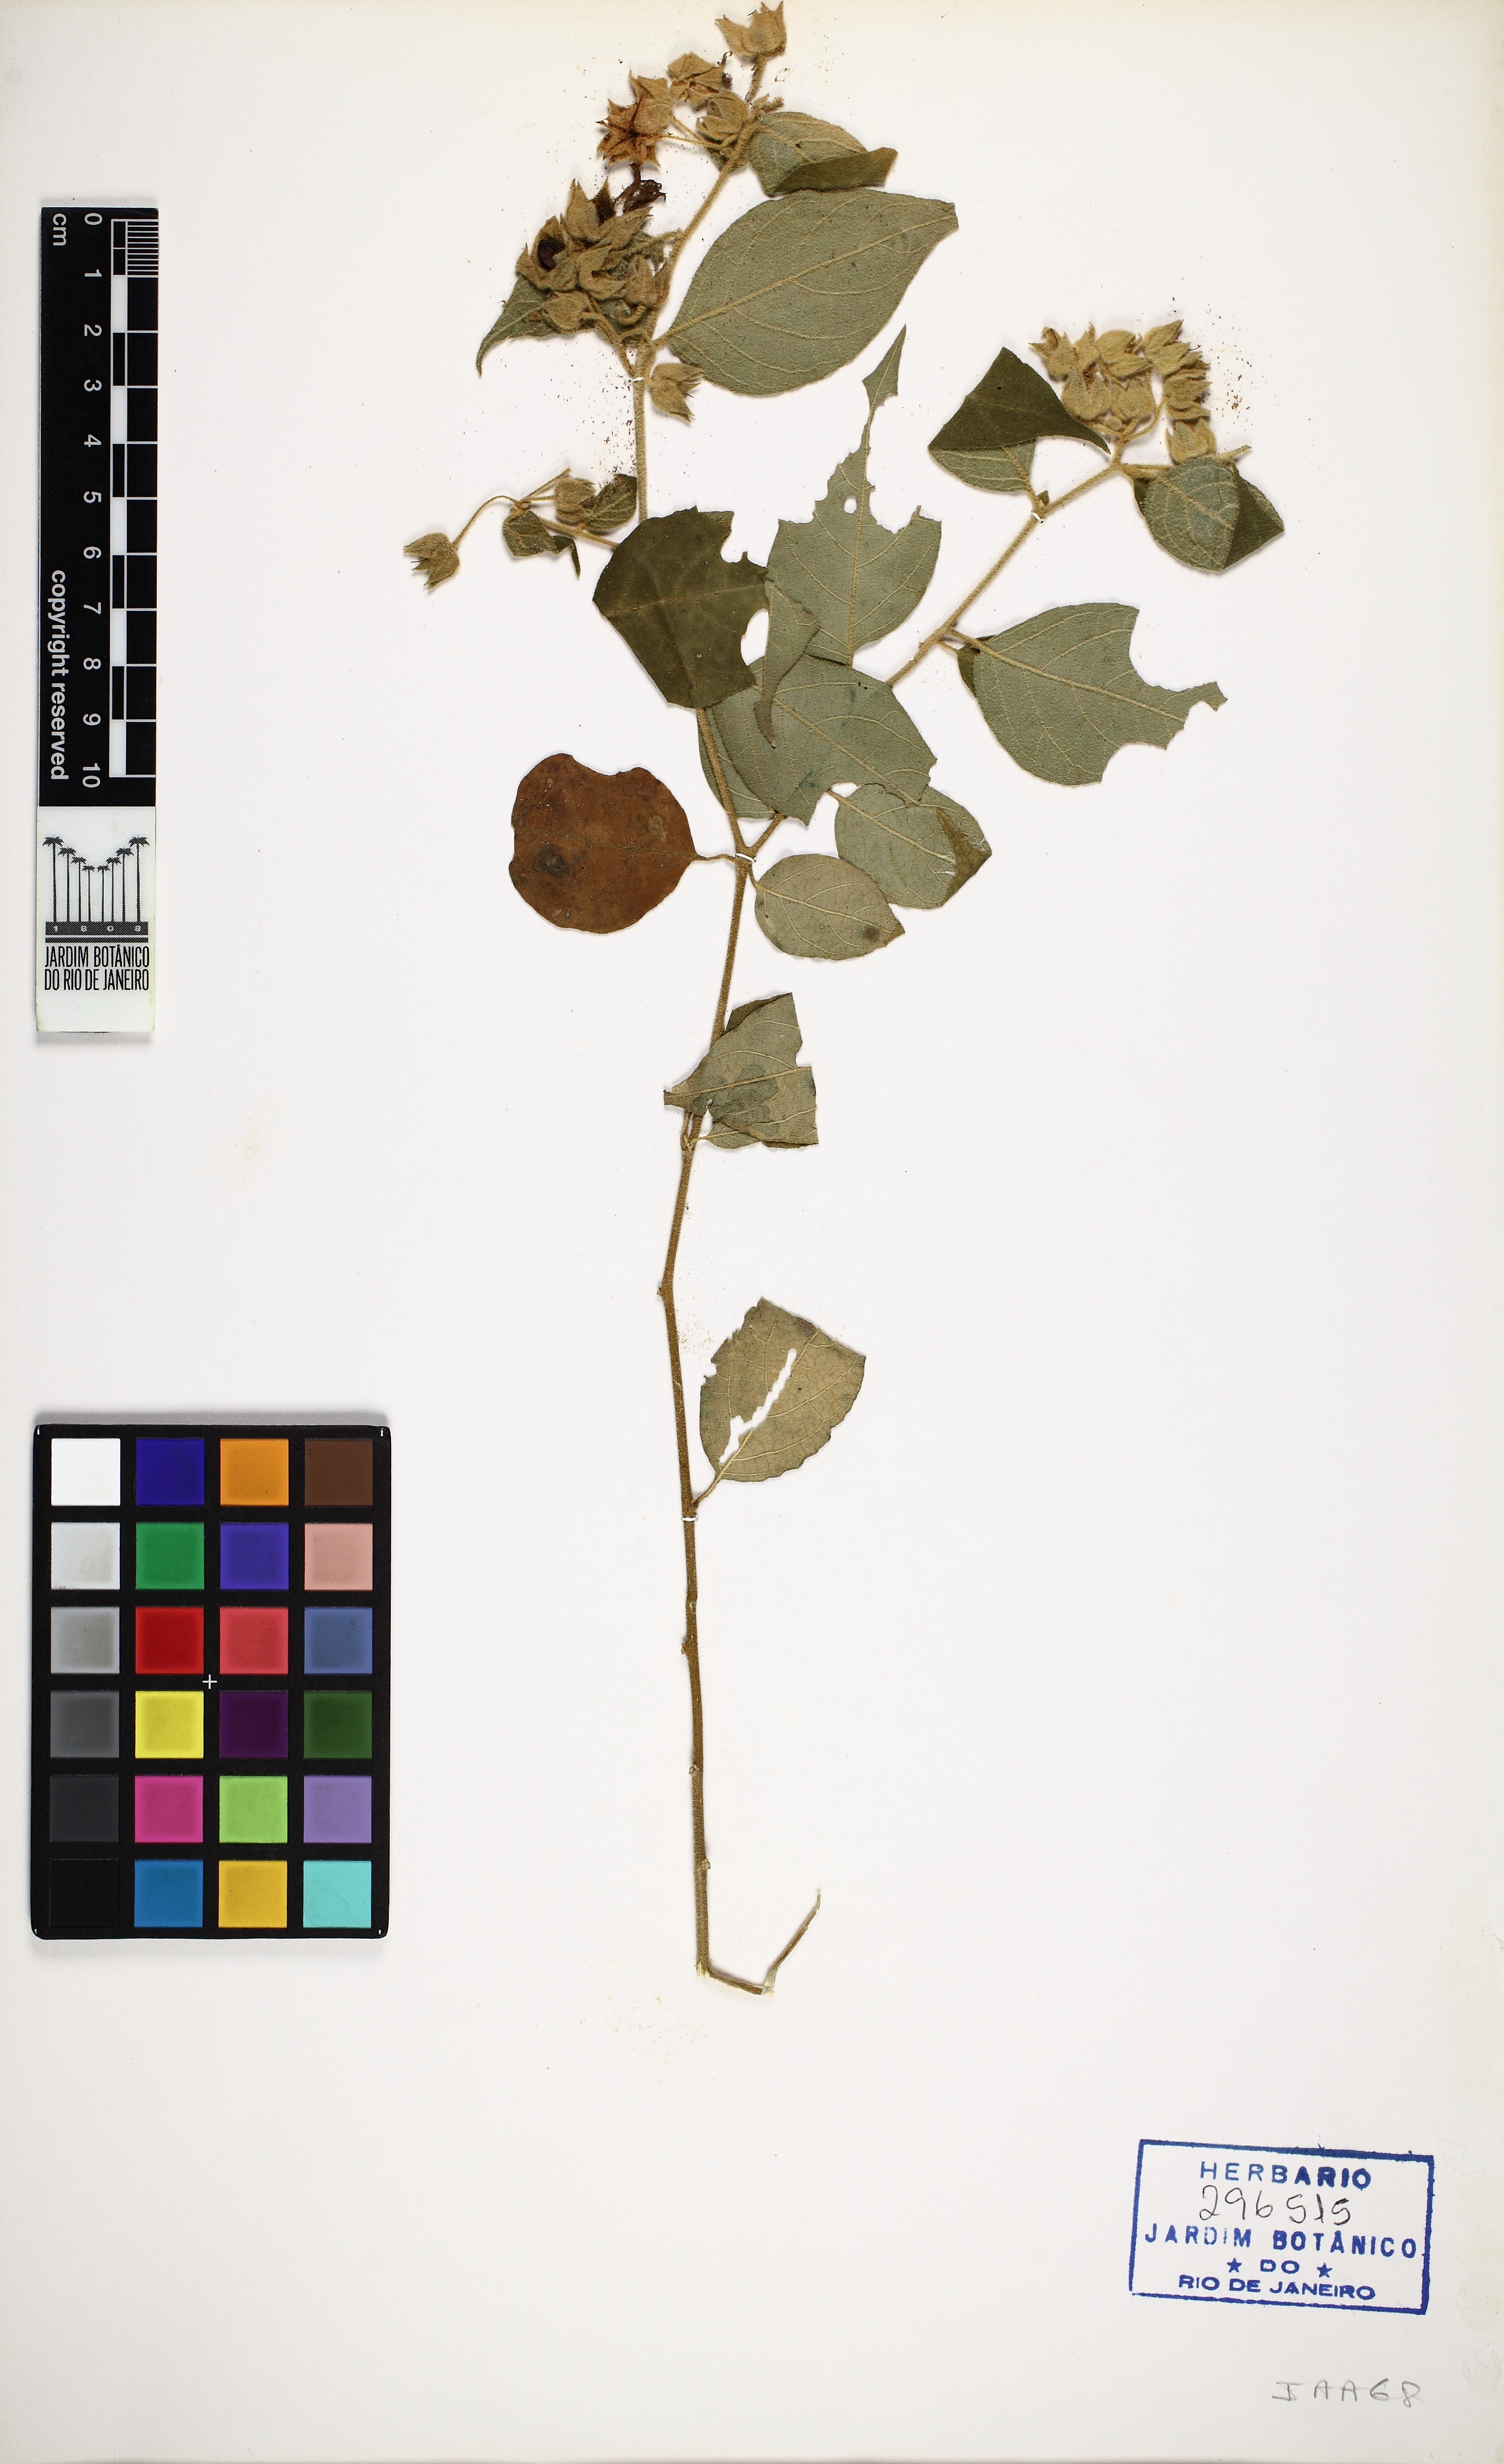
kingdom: Plantae
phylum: Tracheophyta
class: Magnoliopsida
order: Solanales
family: Solanaceae
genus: Solanum
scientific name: Solanum megalochiton
